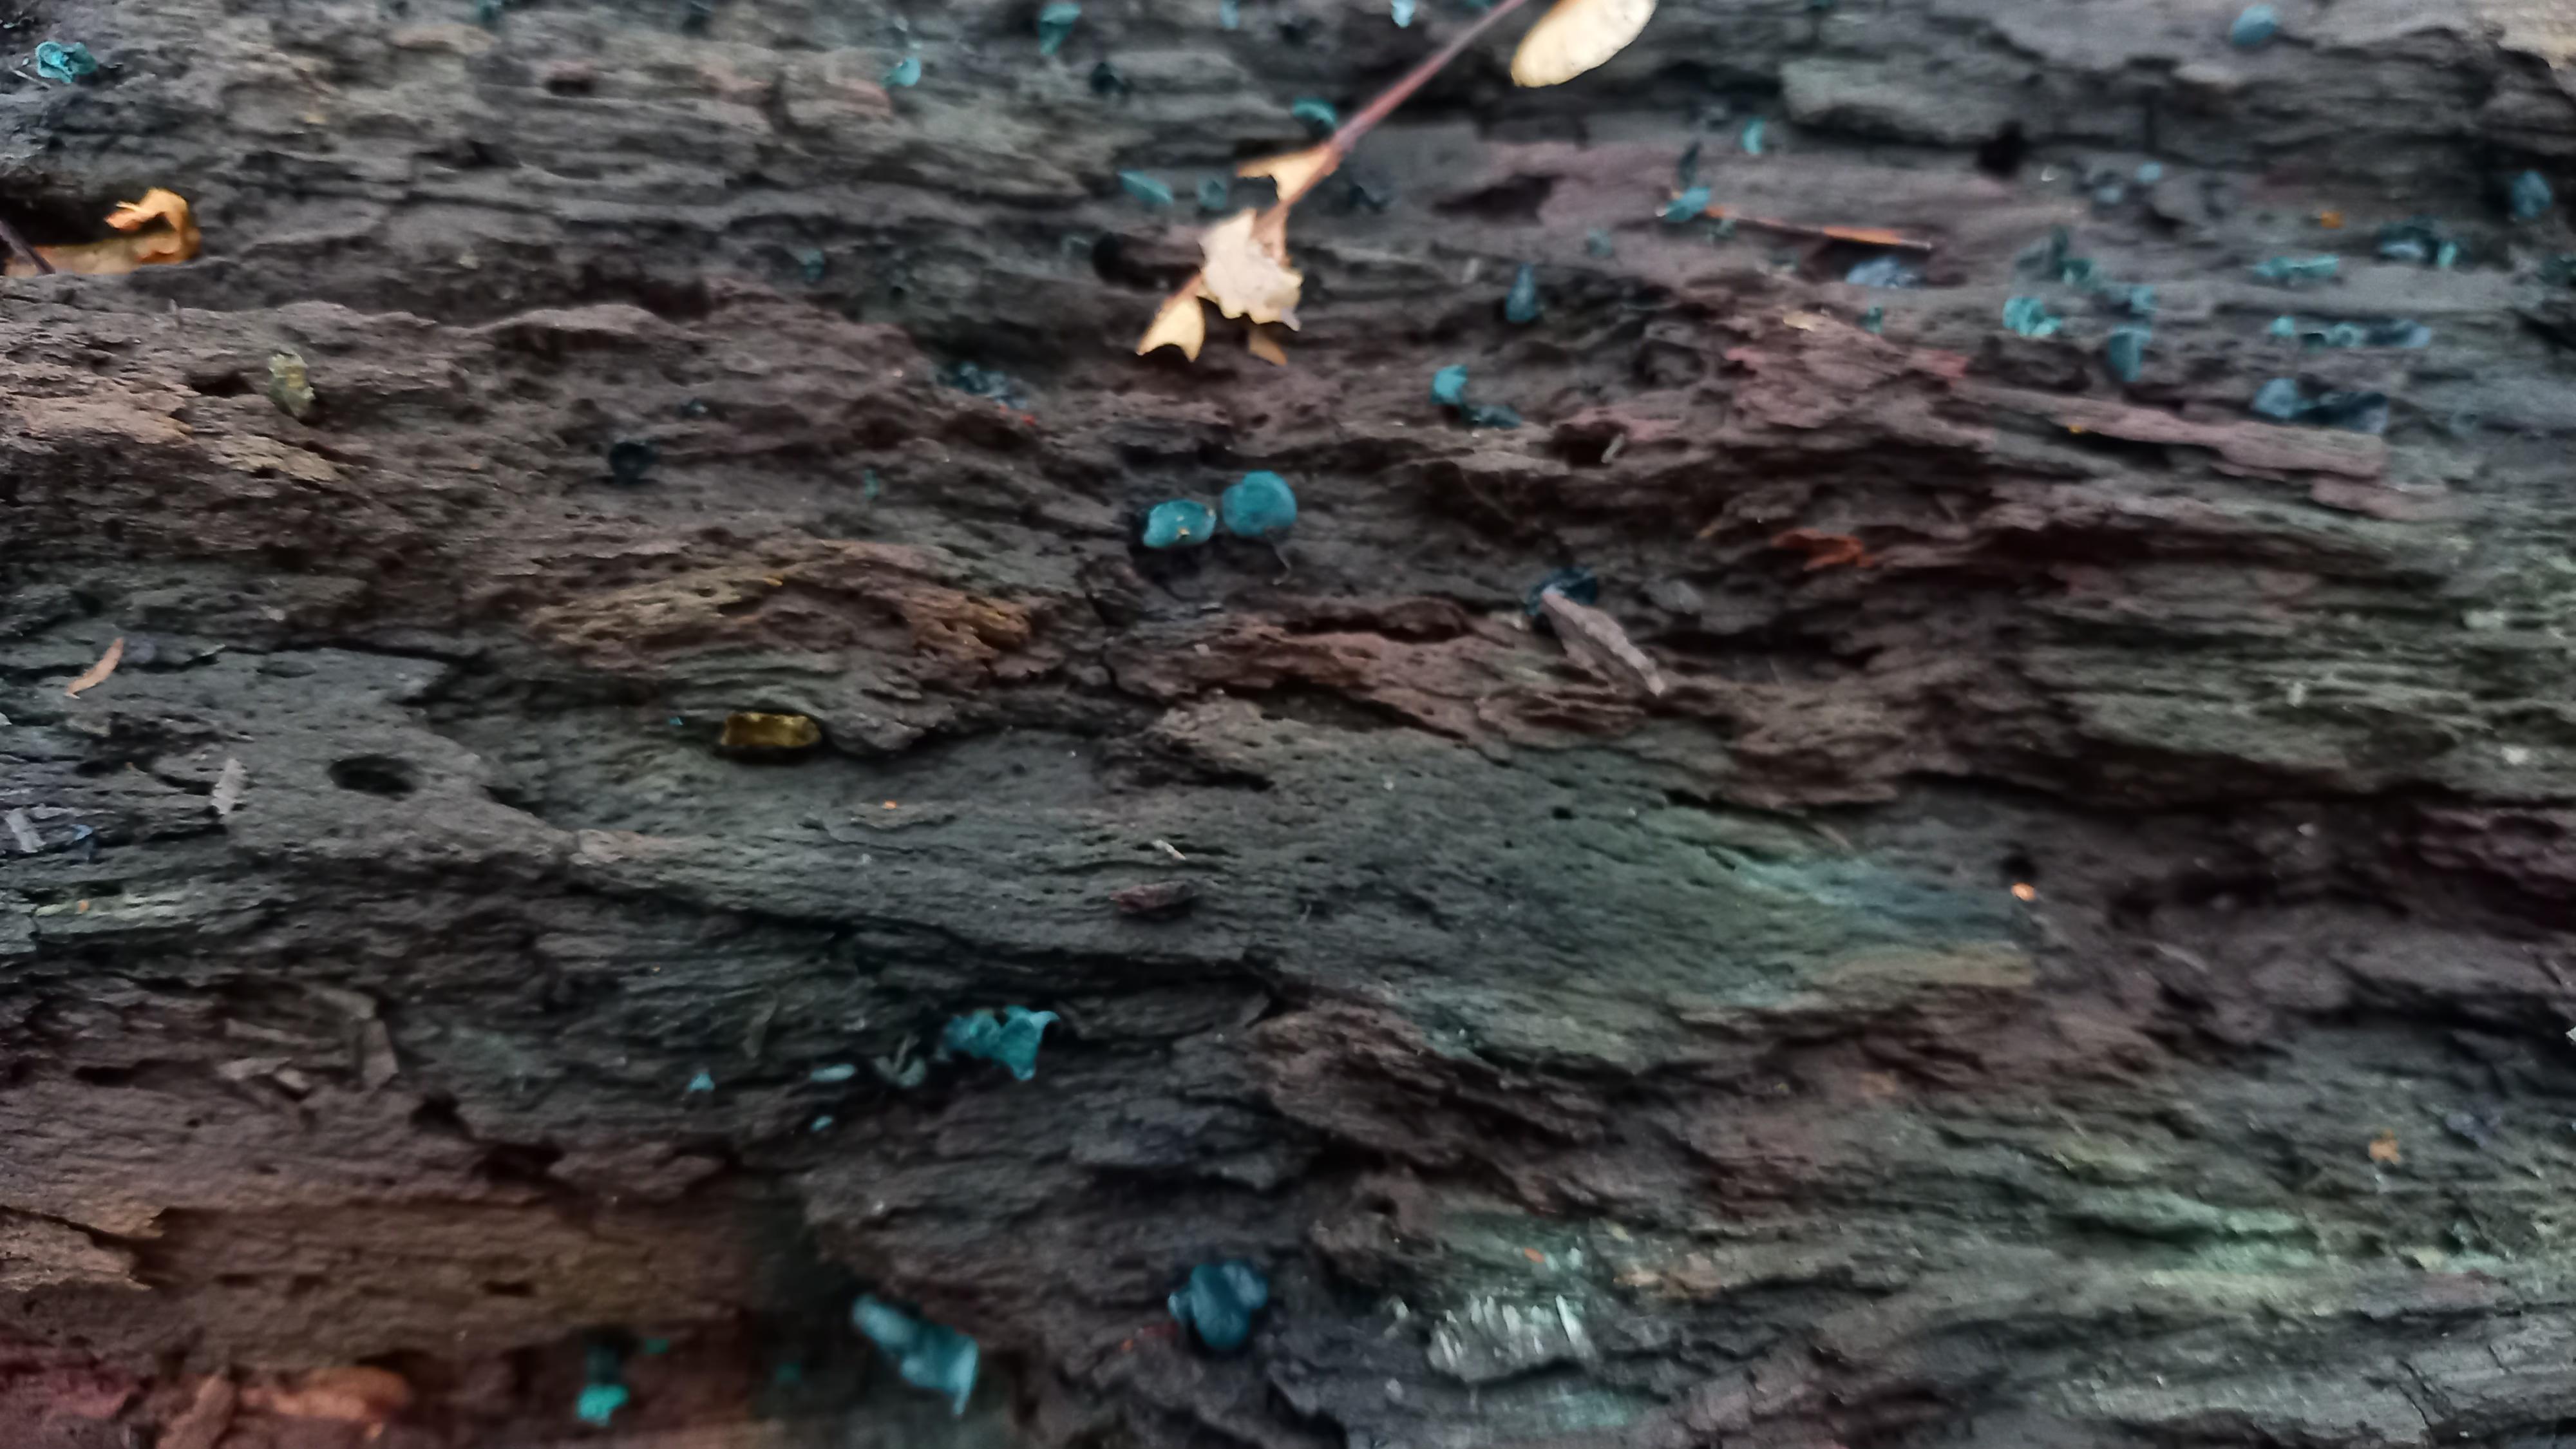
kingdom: Fungi
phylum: Ascomycota
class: Leotiomycetes
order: Helotiales
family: Chlorociboriaceae
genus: Chlorociboria
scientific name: Chlorociboria aeruginascens
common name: almindelig grønskive
